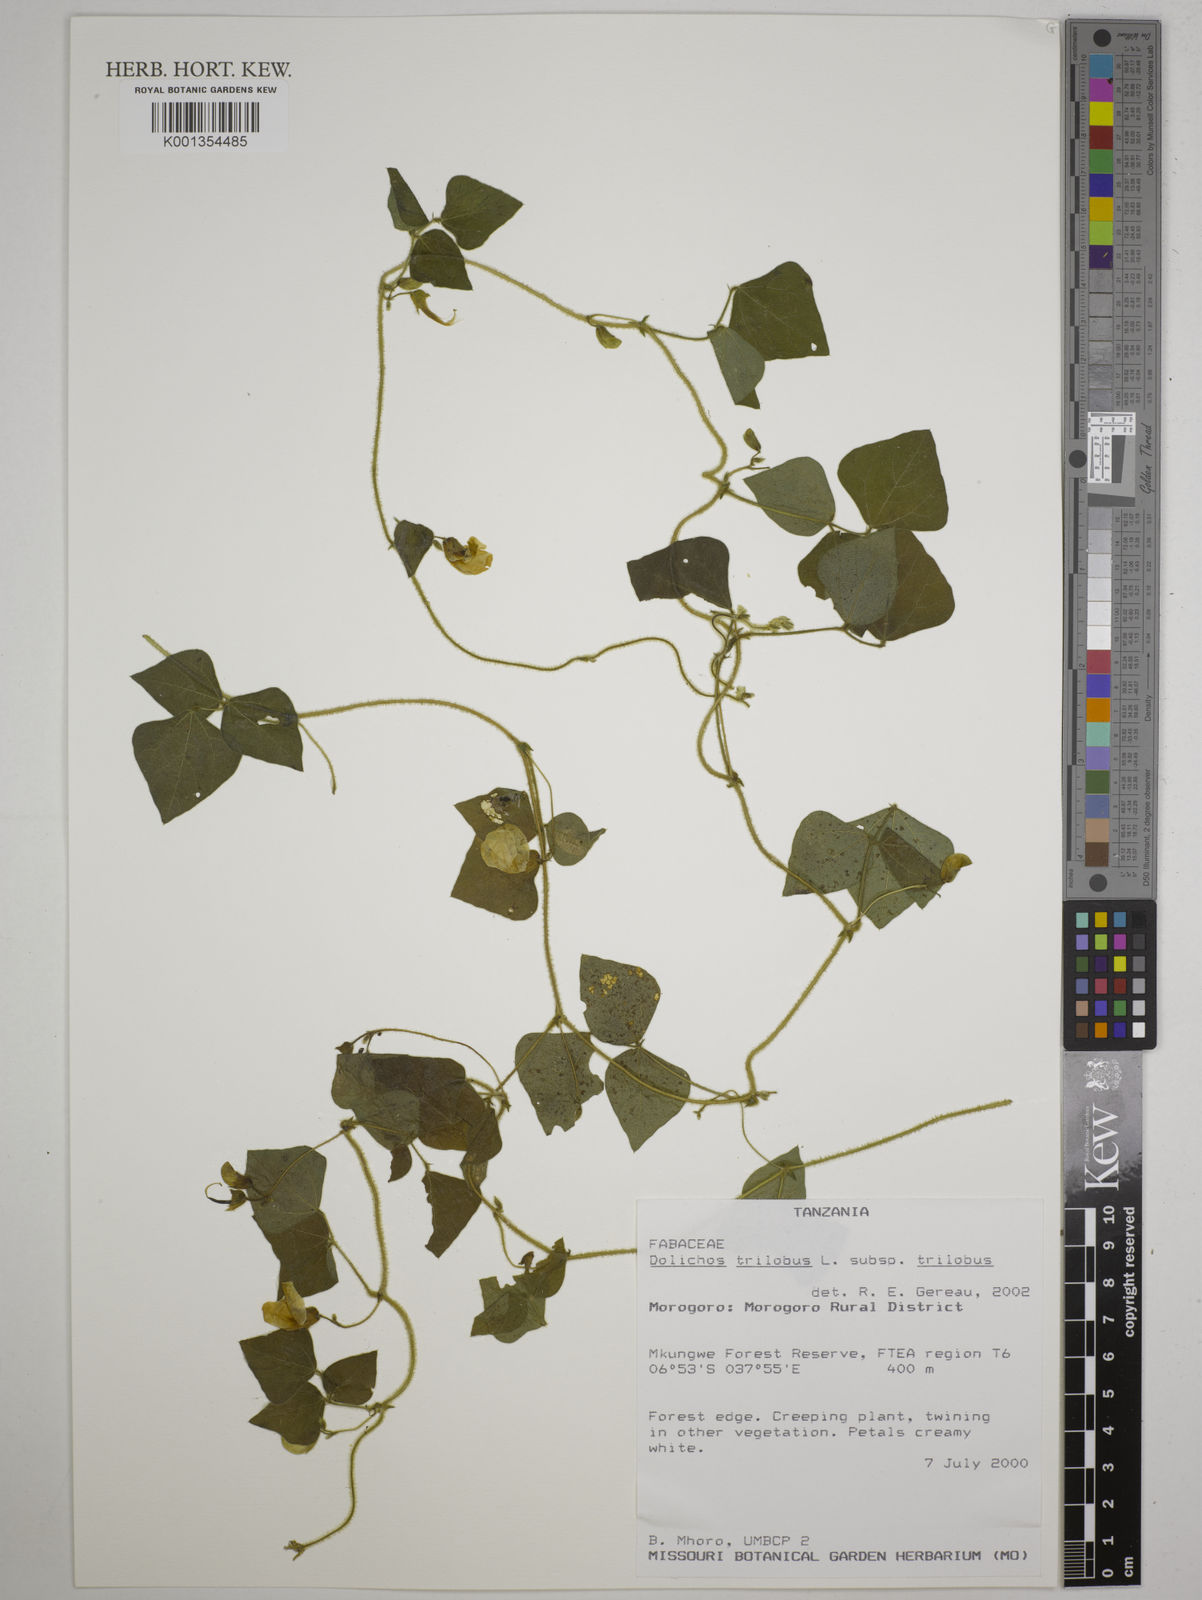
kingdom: Plantae
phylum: Tracheophyta
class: Magnoliopsida
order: Fabales
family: Fabaceae
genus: Dolichos
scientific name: Dolichos
